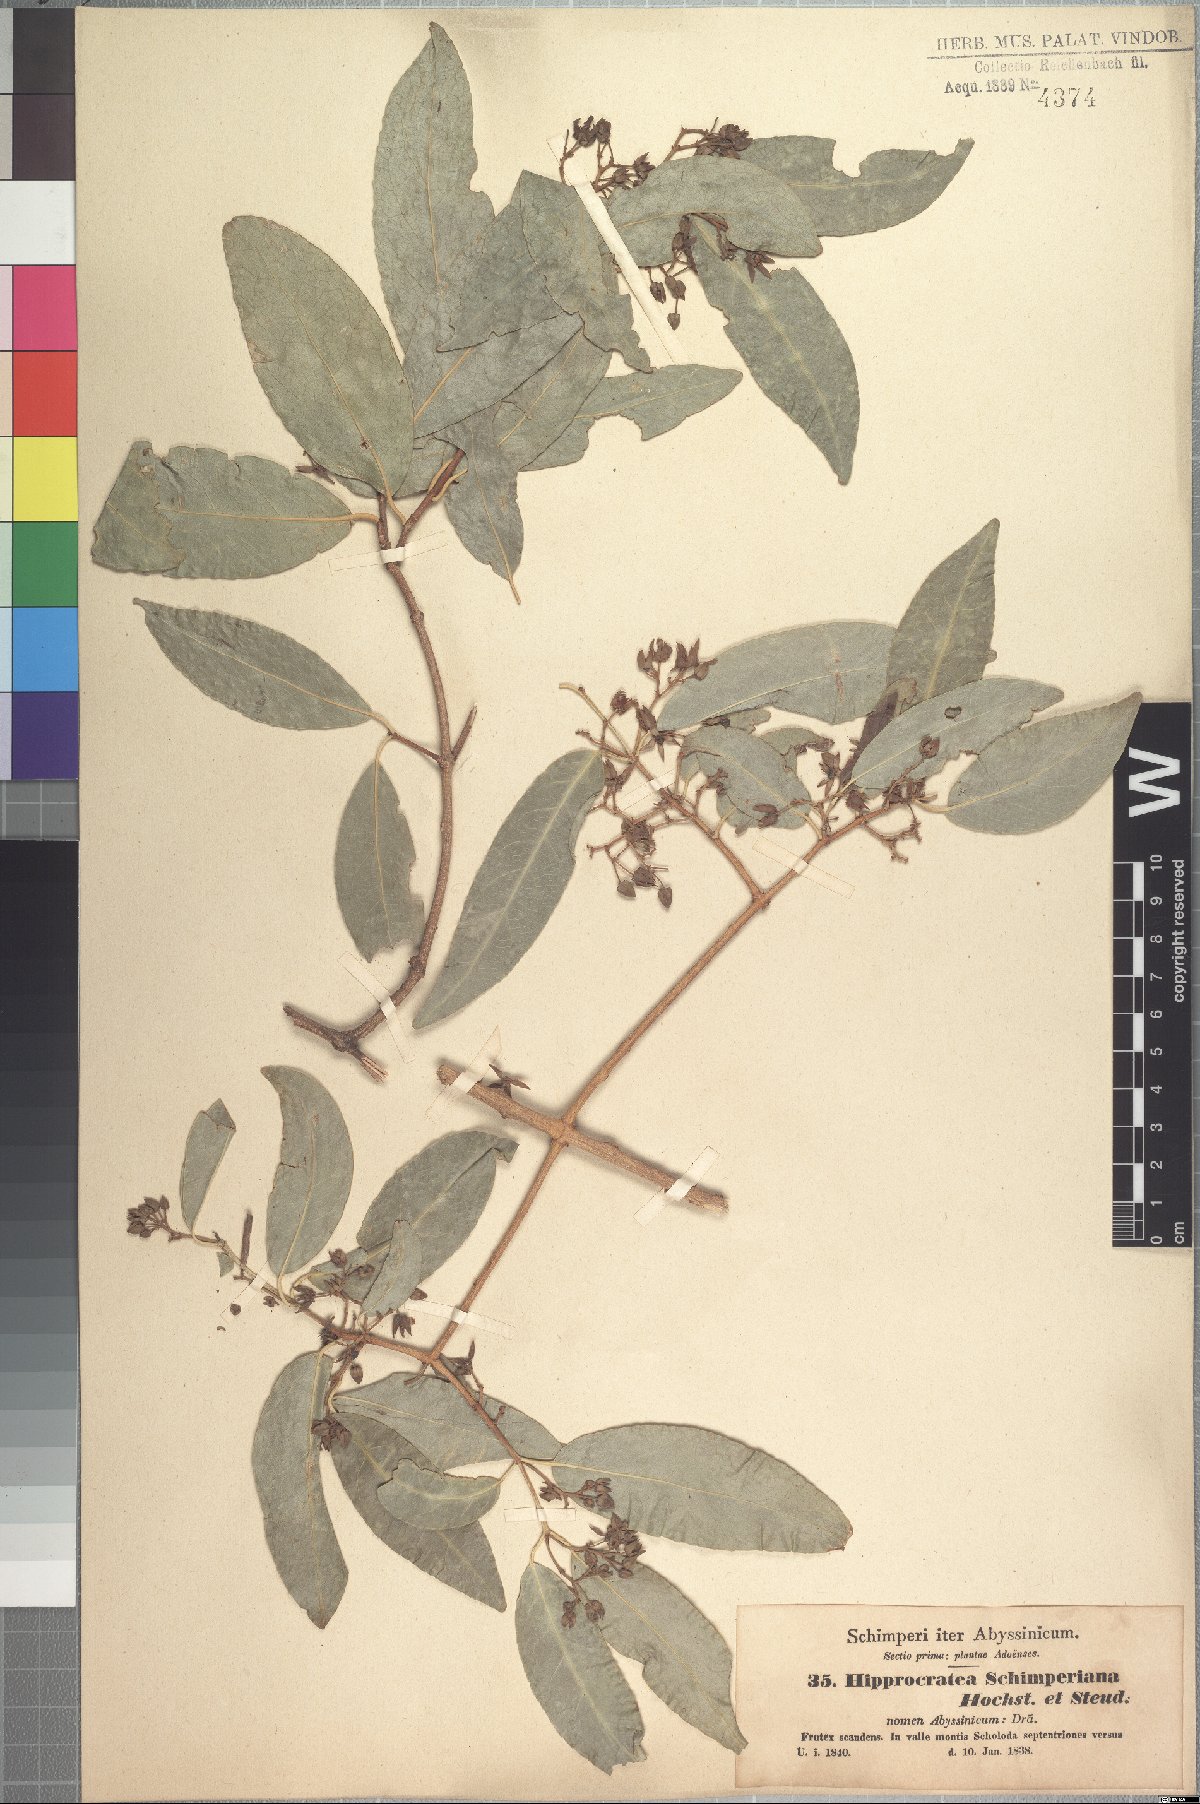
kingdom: Plantae
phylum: Tracheophyta
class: Magnoliopsida
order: Celastrales
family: Celastraceae
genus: Loeseneriella
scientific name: Loeseneriella africana
